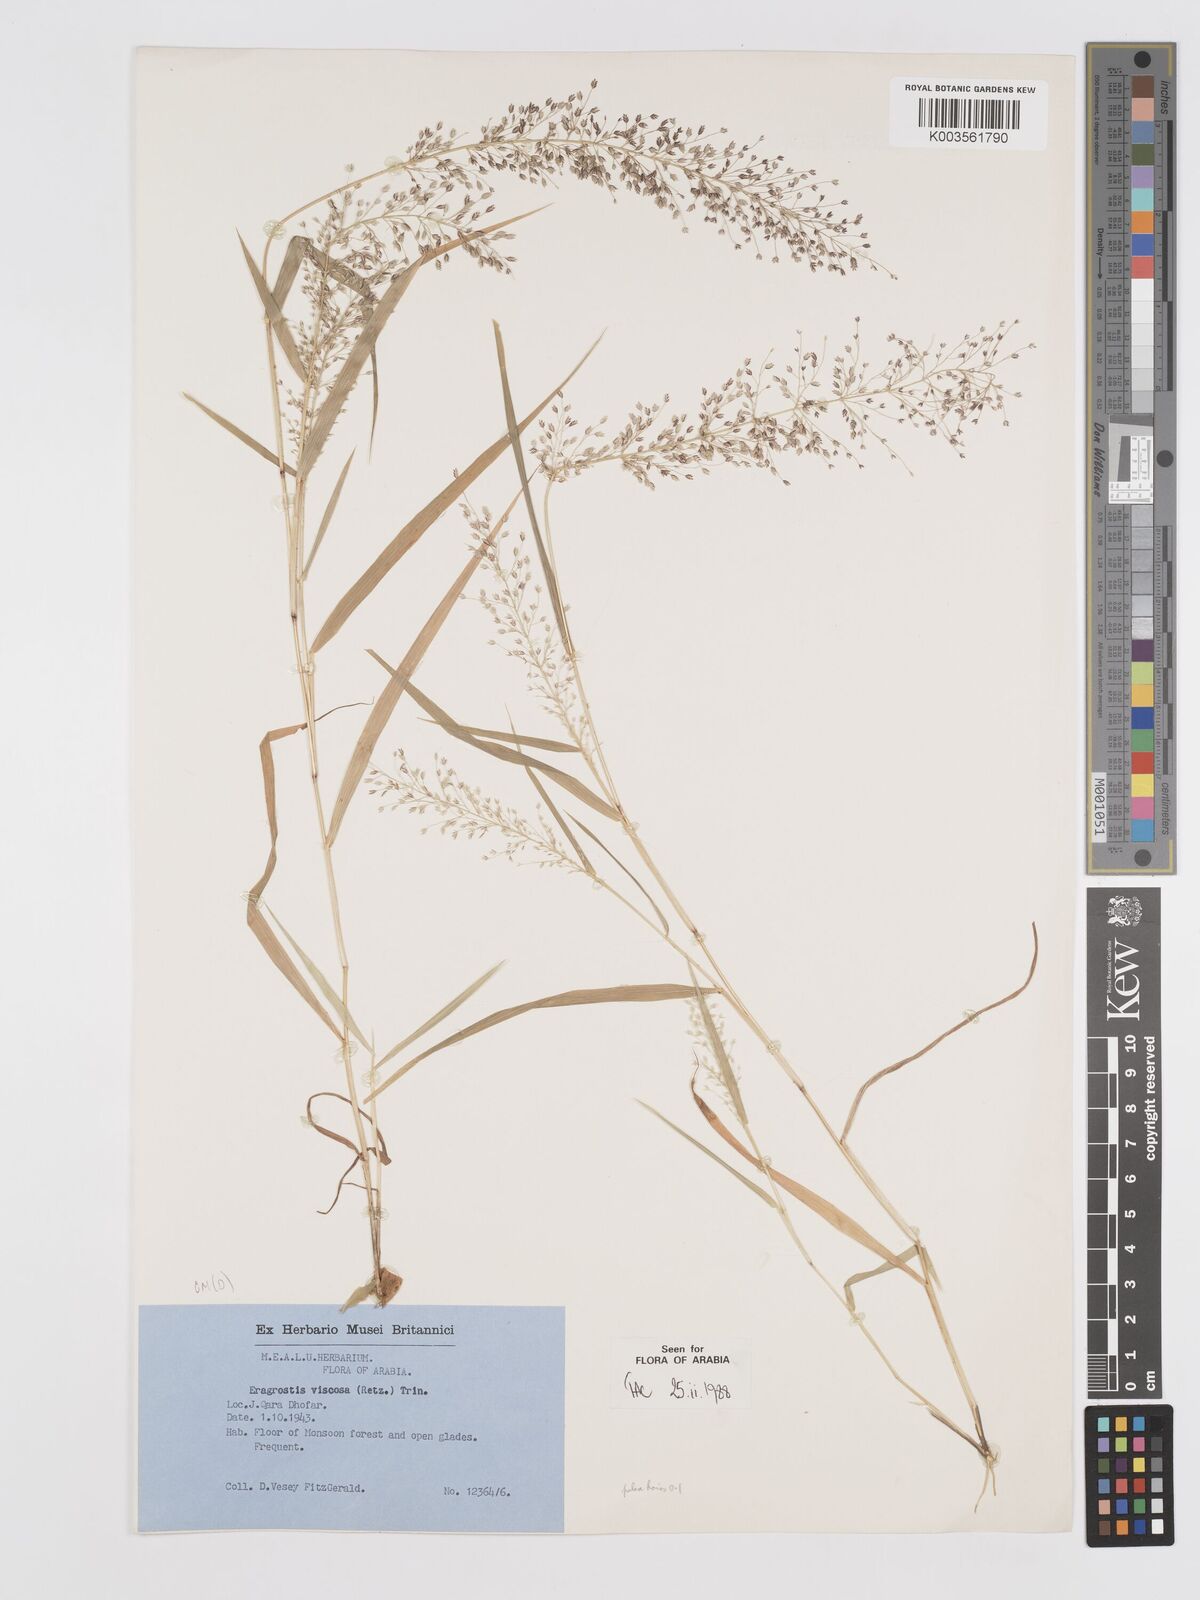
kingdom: Plantae
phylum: Tracheophyta
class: Liliopsida
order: Poales
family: Poaceae
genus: Eragrostis
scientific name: Eragrostis viscosa
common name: Sticky love grass
